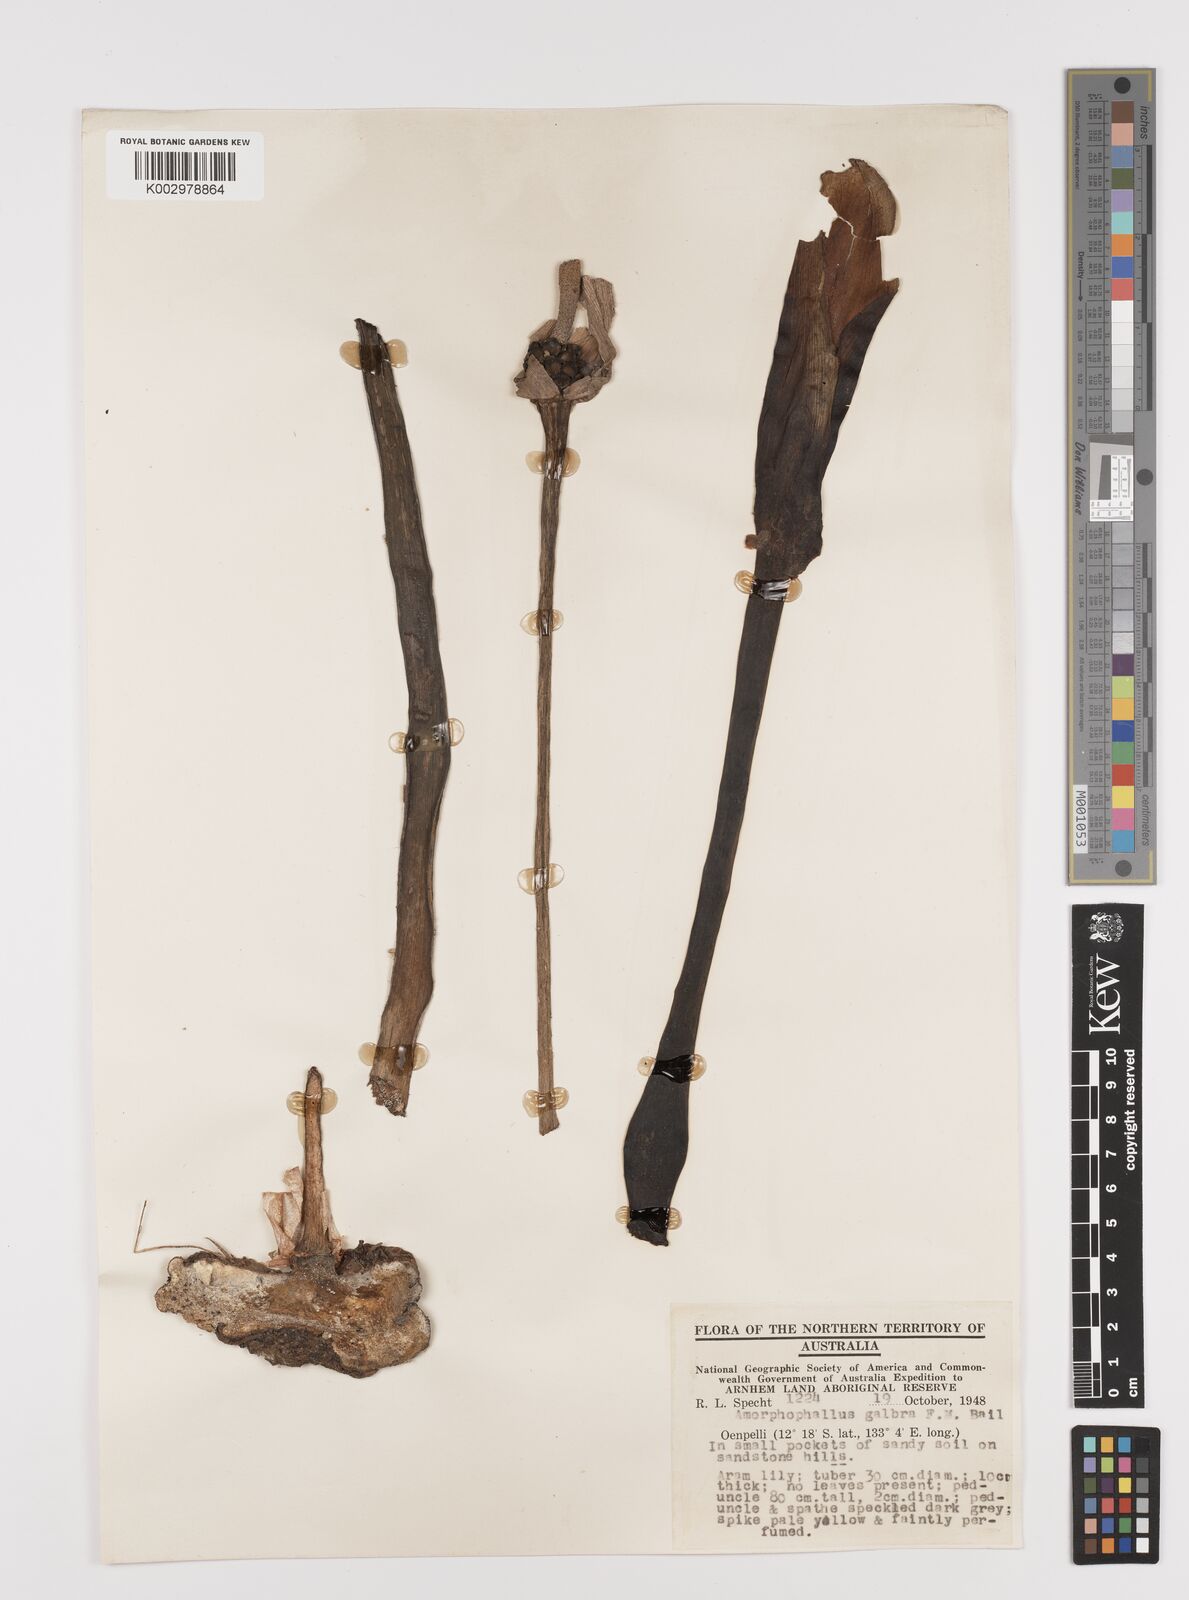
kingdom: Plantae
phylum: Tracheophyta
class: Liliopsida
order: Alismatales
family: Araceae
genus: Amorphophallus
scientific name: Amorphophallus galbra
